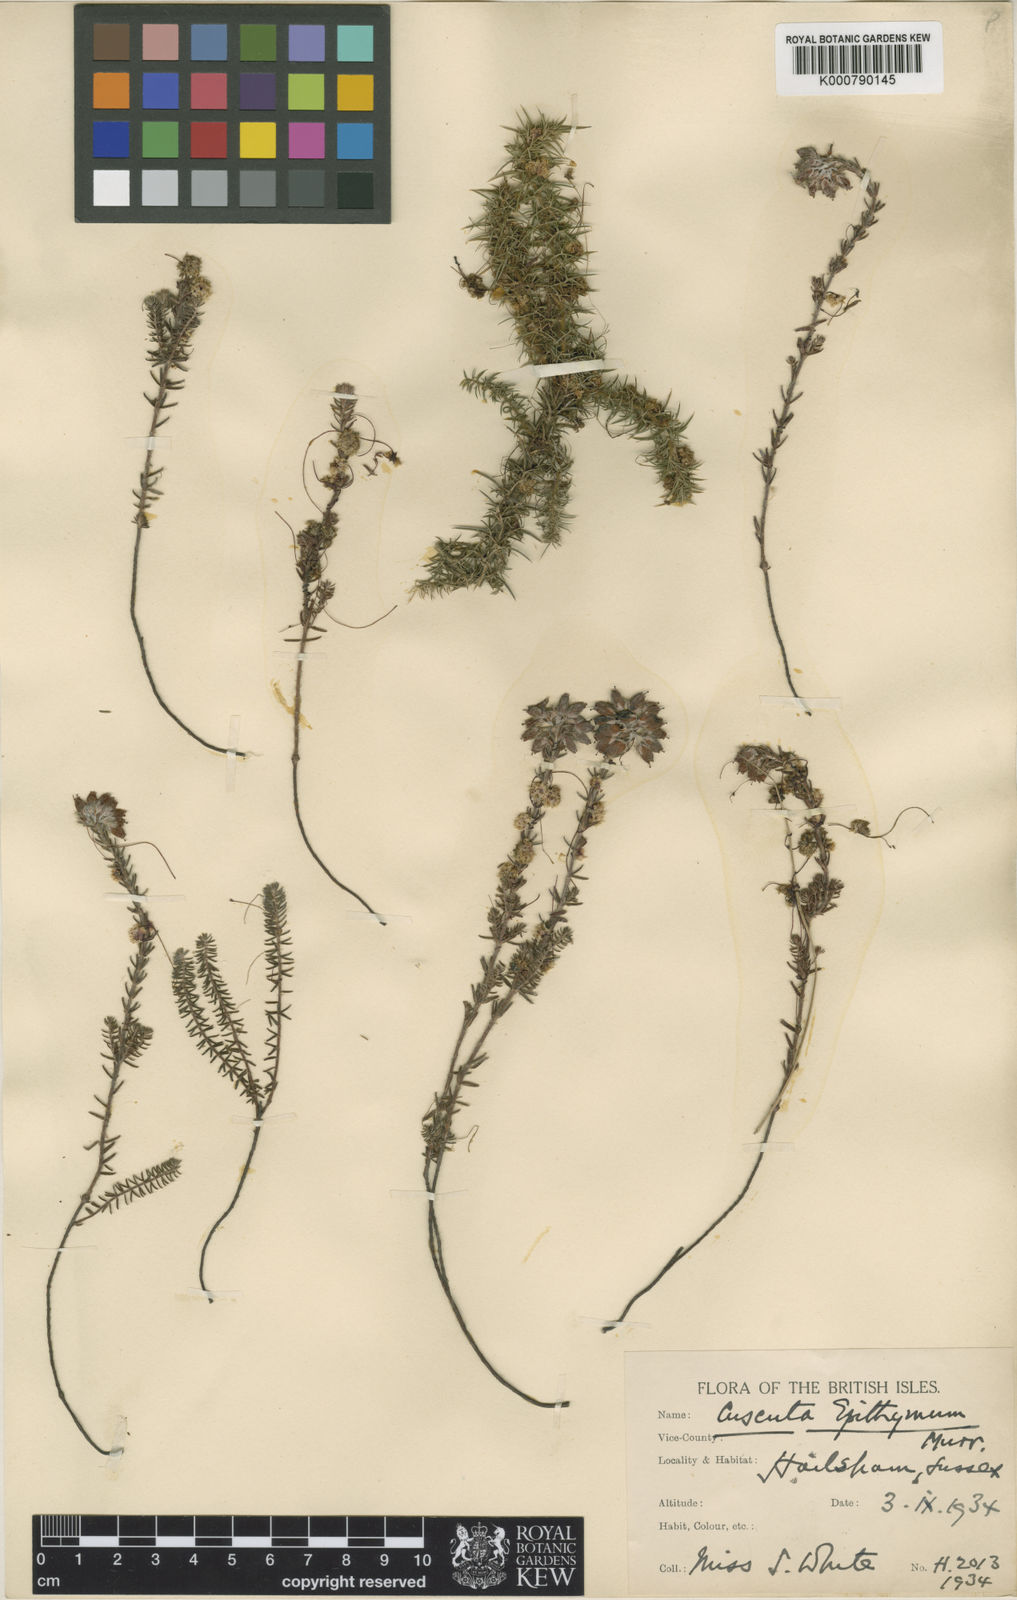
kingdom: Plantae
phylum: Tracheophyta
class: Magnoliopsida
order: Solanales
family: Convolvulaceae
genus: Cuscuta
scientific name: Cuscuta epithymum
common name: Clover dodder
